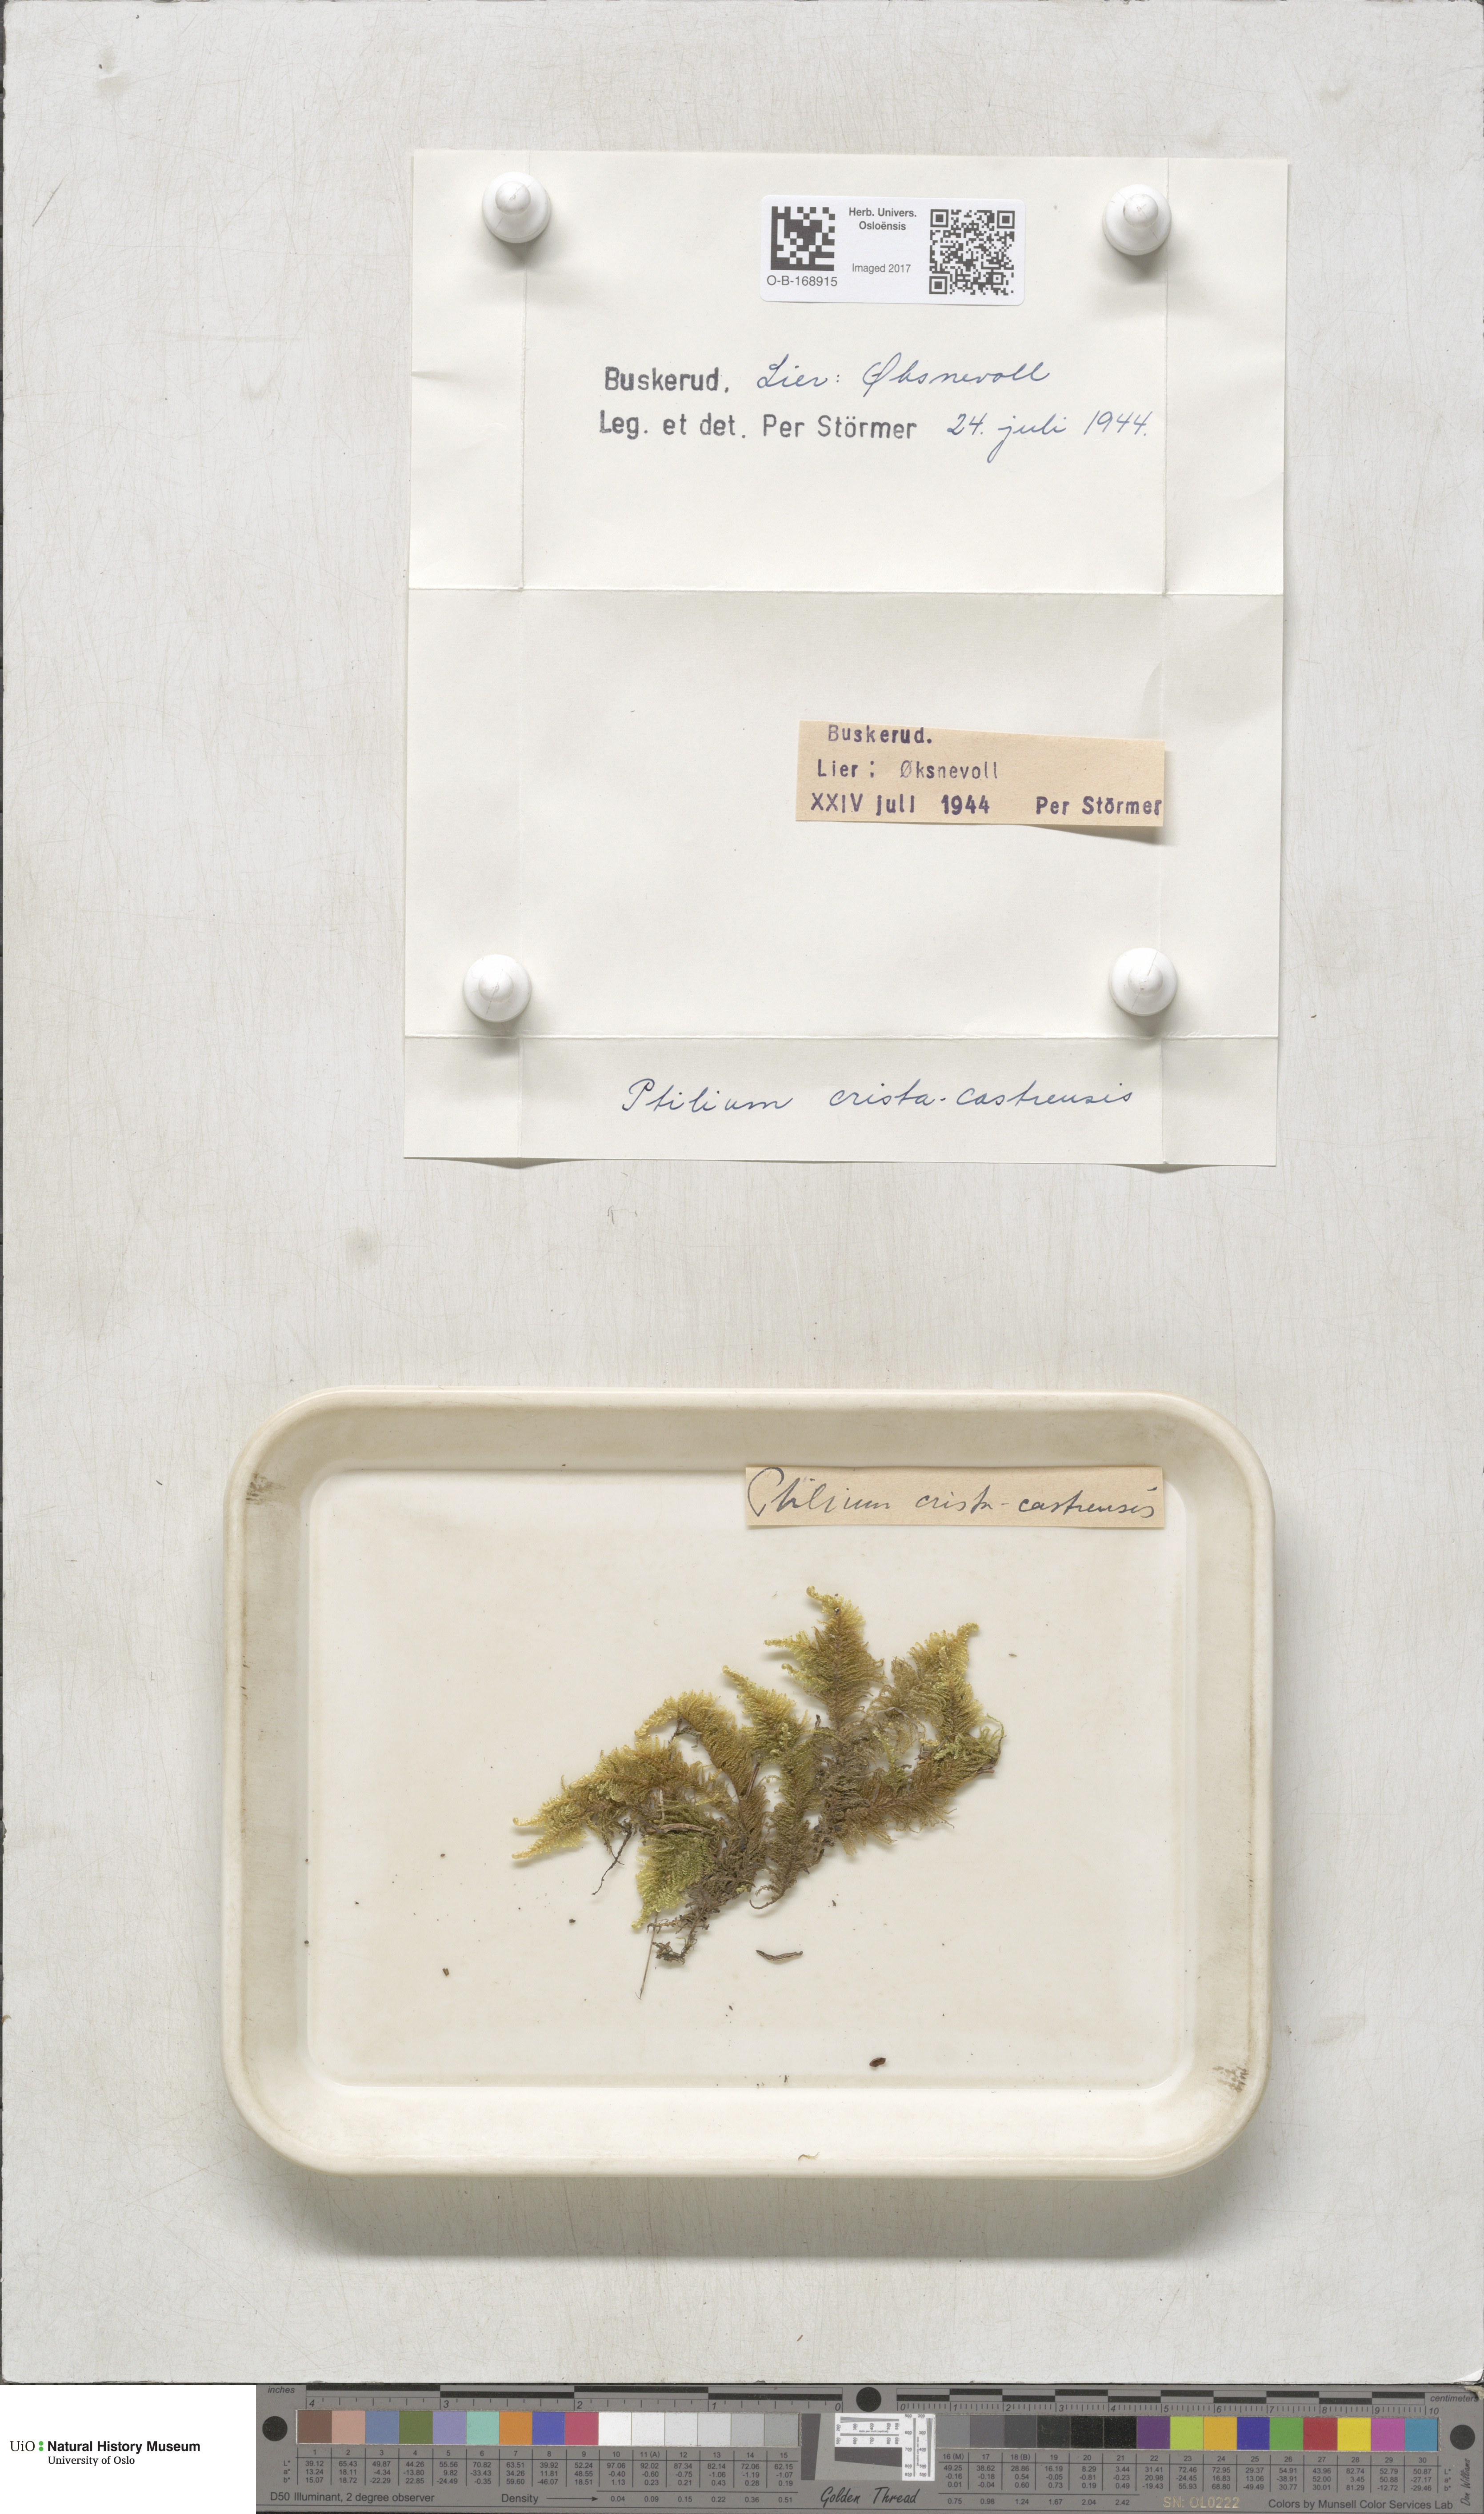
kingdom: Plantae
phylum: Bryophyta
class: Bryopsida
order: Hypnales
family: Pylaisiaceae
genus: Ptilium
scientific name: Ptilium crista-castrensis
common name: Knight's plume moss
